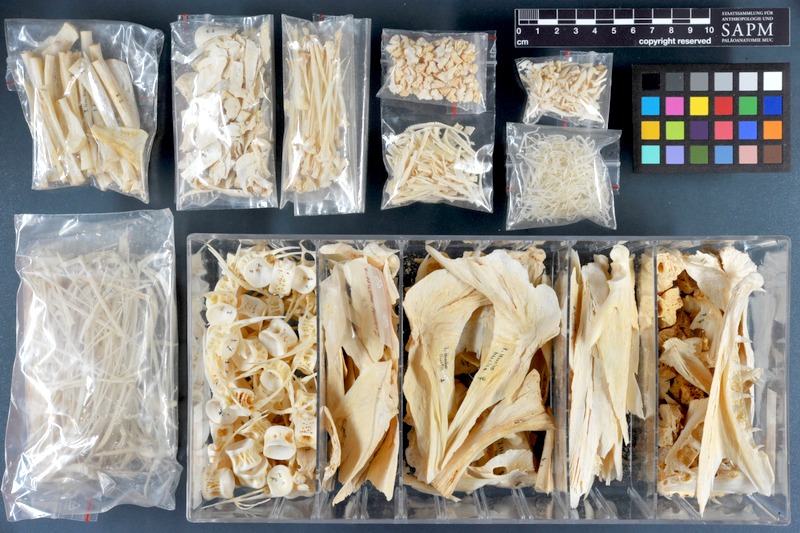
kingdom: Animalia
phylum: Chordata
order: Salmoniformes
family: Salmonidae
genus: Hucho
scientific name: Hucho hucho
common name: Huchen (danube salmon)
